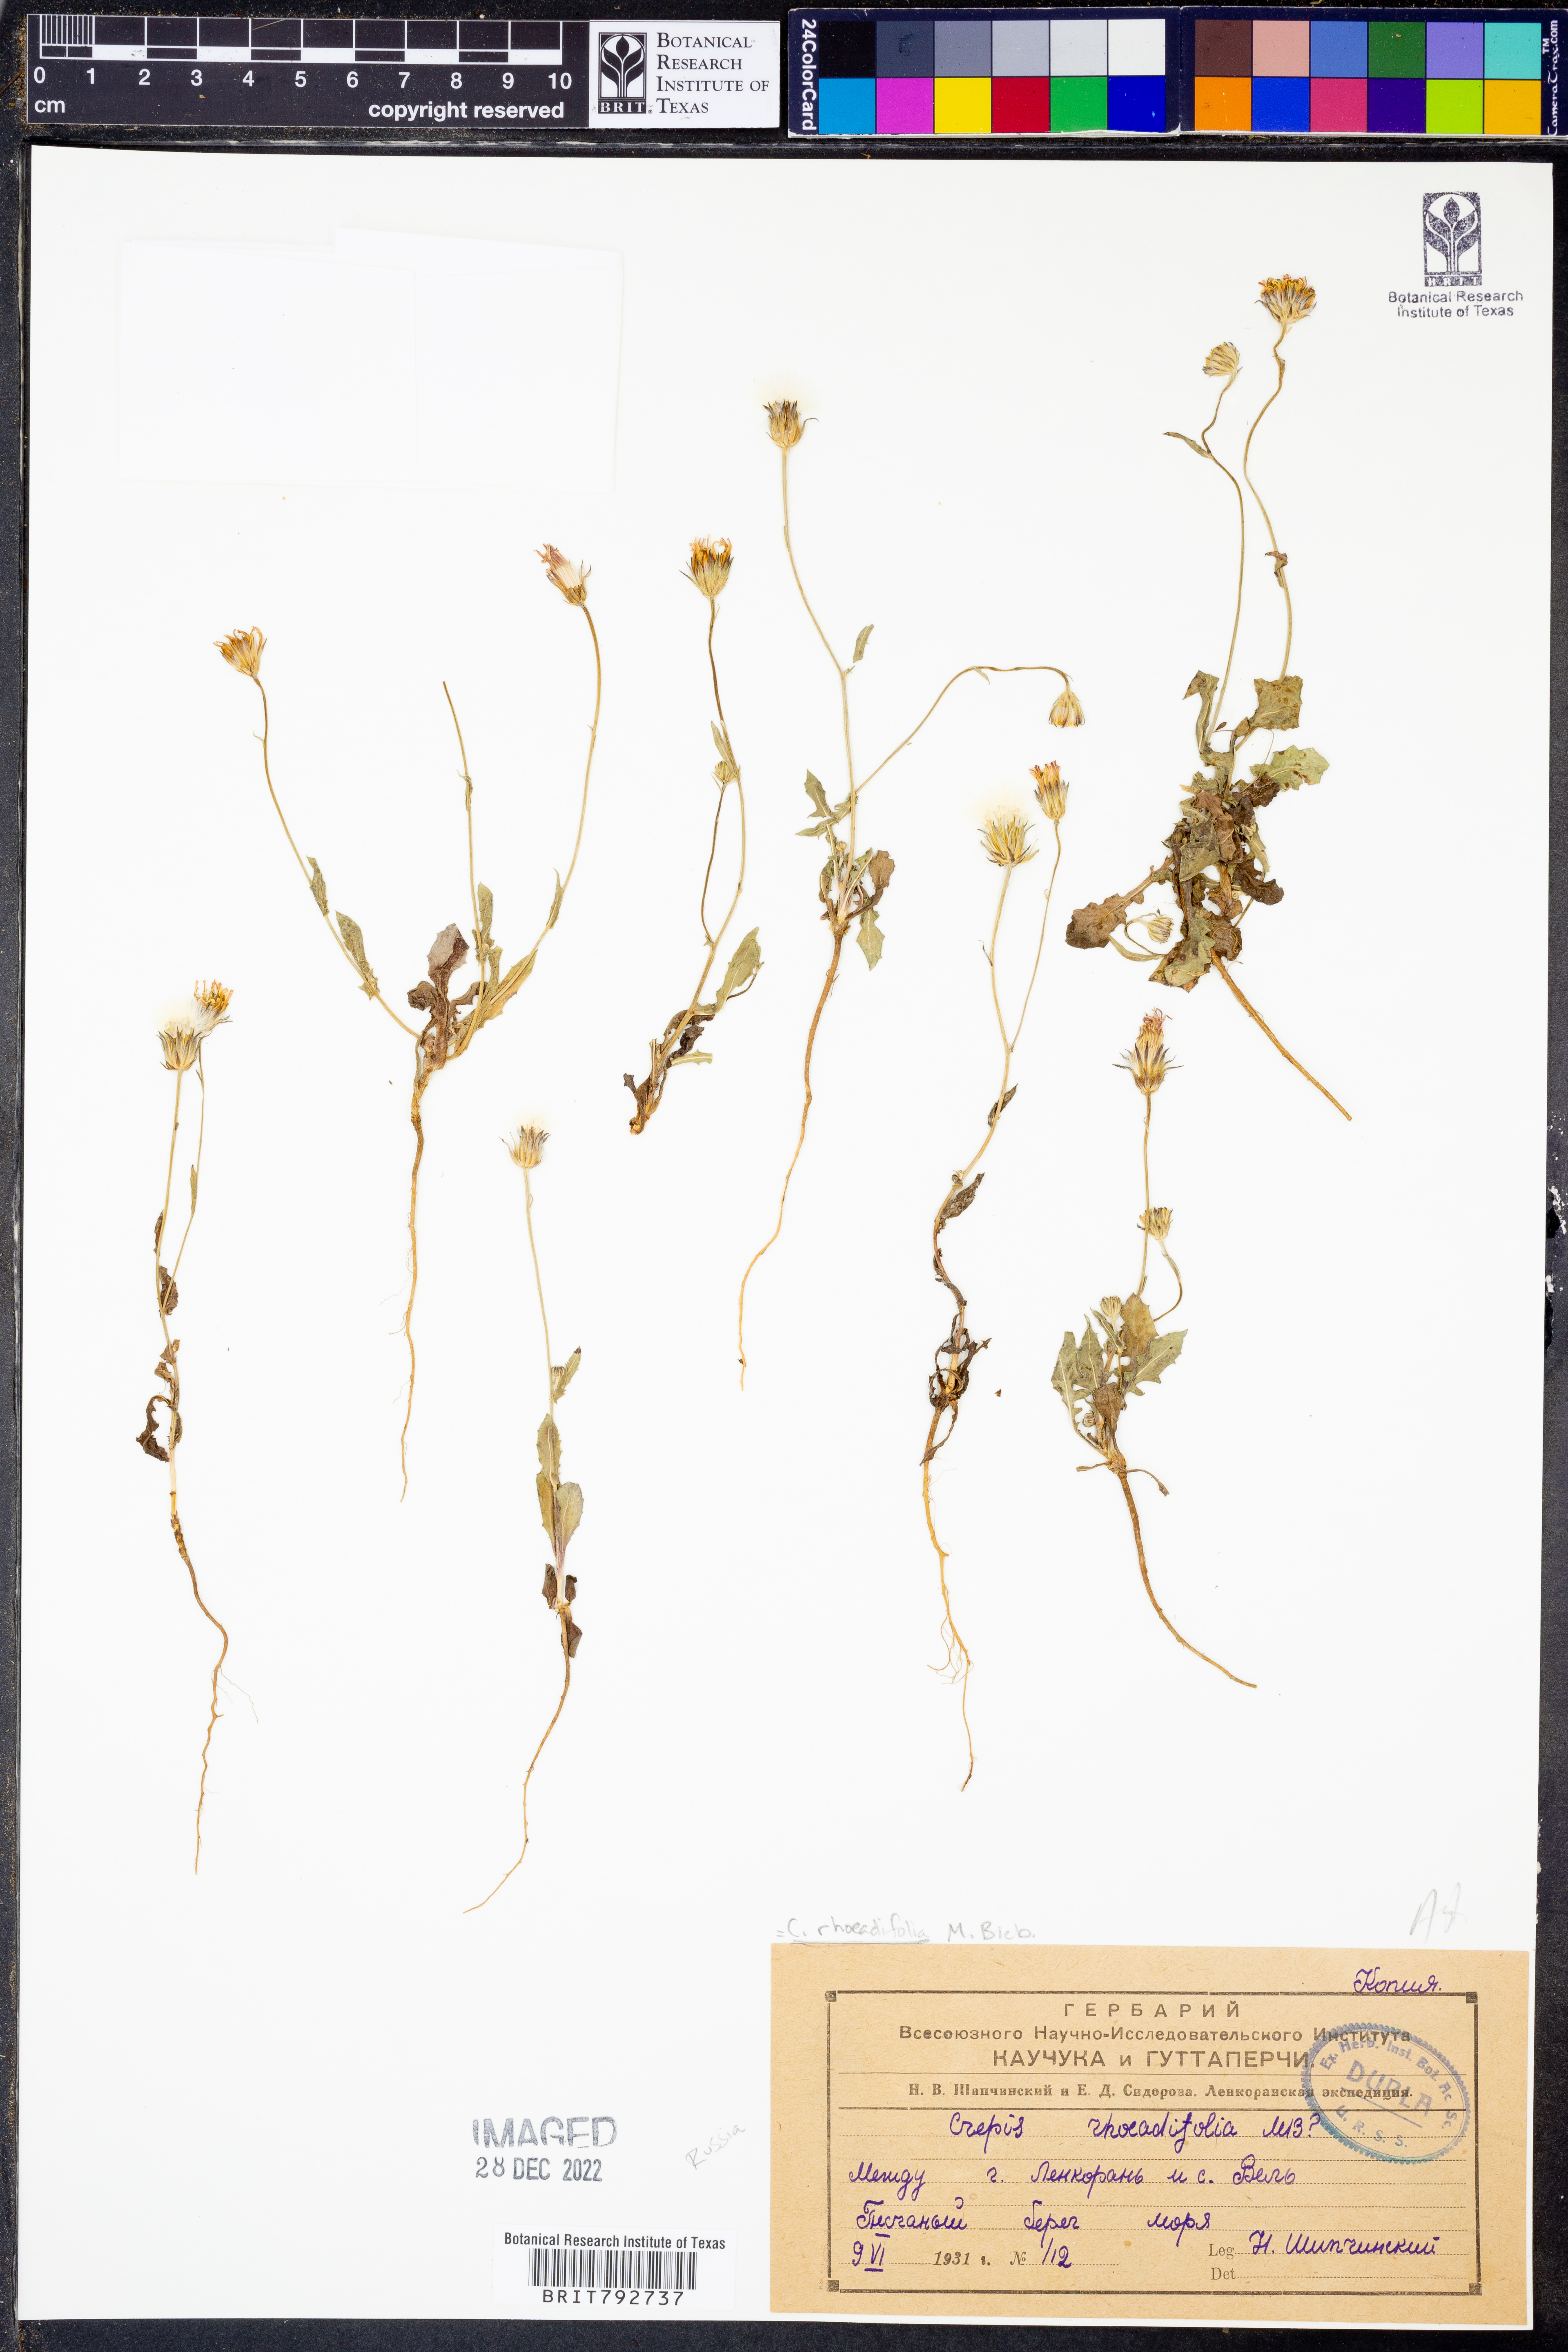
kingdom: Plantae
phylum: Tracheophyta
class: Magnoliopsida
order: Asterales
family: Asteraceae
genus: Crepis
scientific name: Crepis foetida
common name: Stinking hawk's-beard
